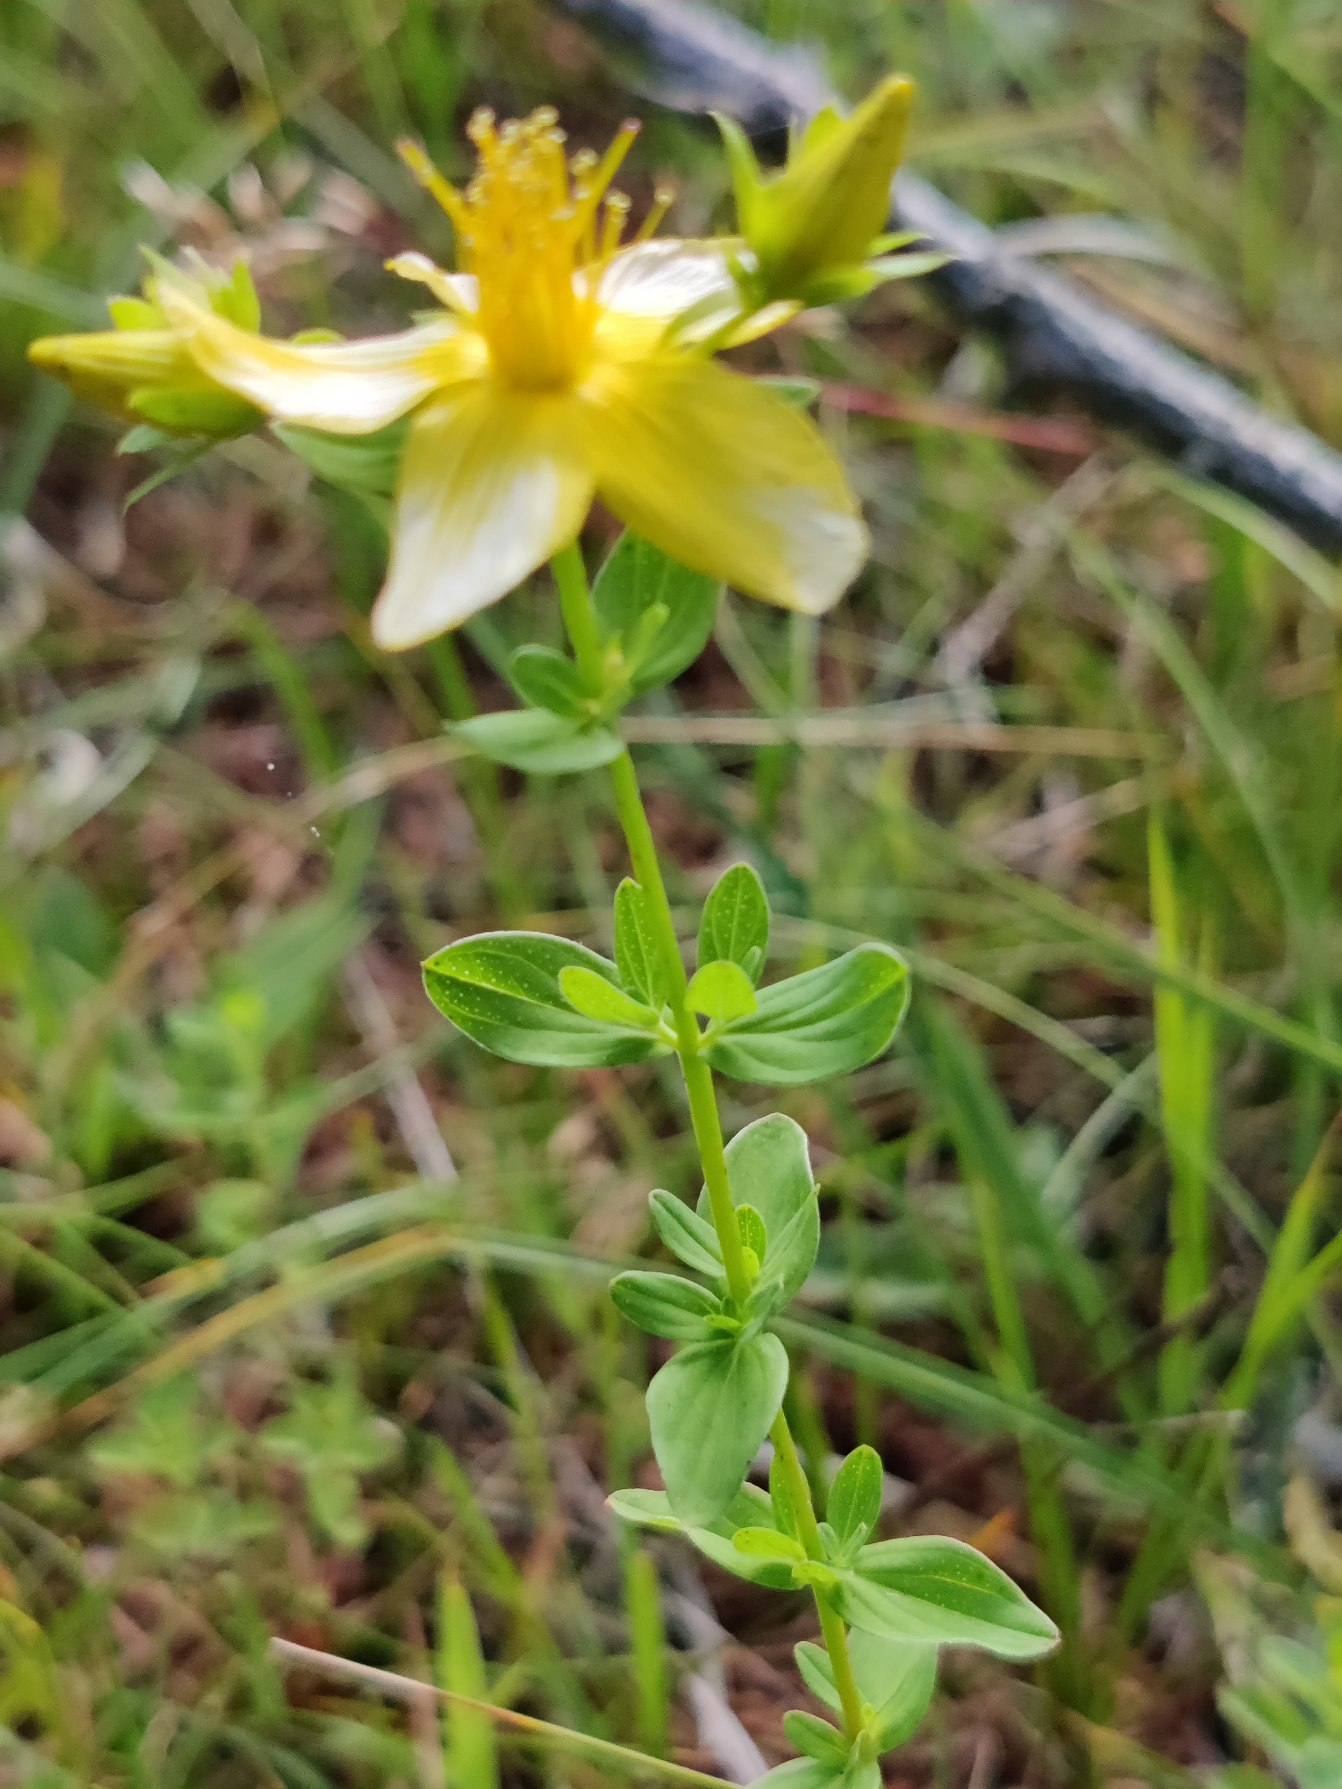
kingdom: Plantae
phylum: Tracheophyta
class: Magnoliopsida
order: Malpighiales
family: Hypericaceae
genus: Hypericum
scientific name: Hypericum perforatum
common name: Prikbladet perikon
